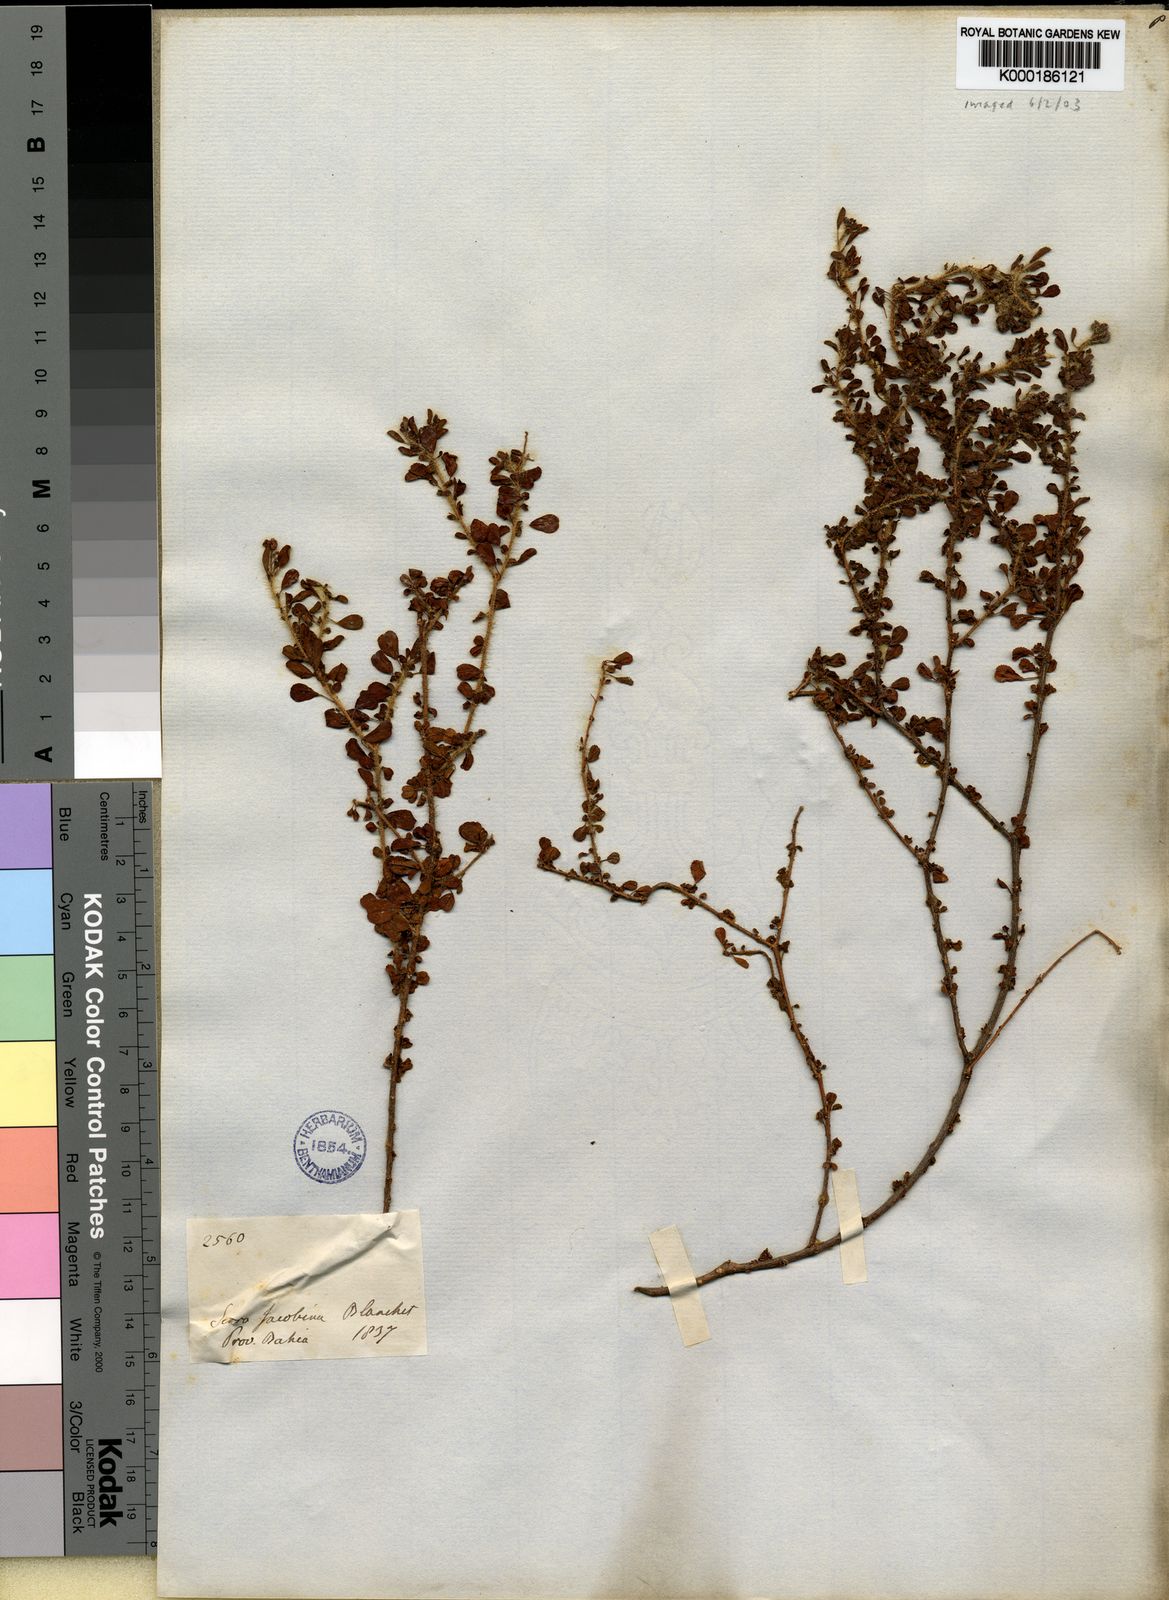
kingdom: Plantae
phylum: Tracheophyta
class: Magnoliopsida
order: Malpighiales
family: Euphorbiaceae
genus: Croton
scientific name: Croton nummularius
